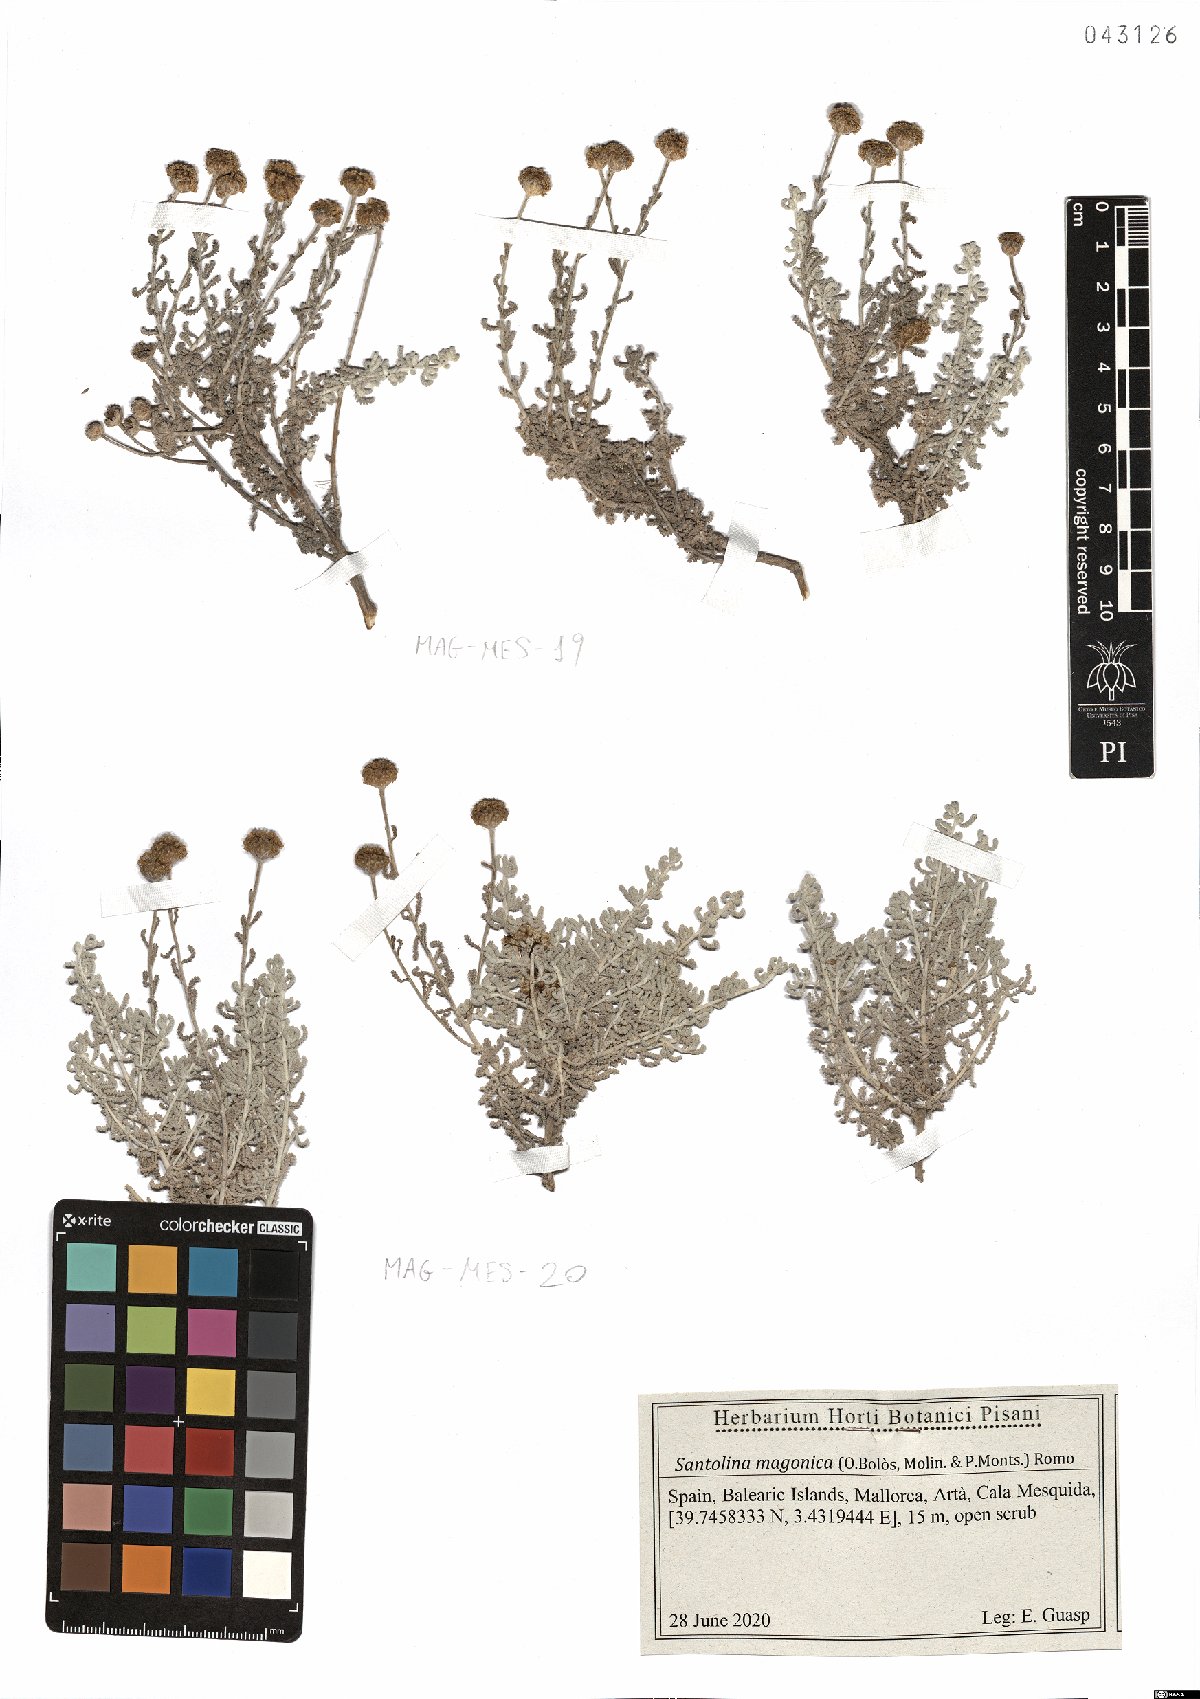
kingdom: Plantae
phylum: Tracheophyta
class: Magnoliopsida
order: Asterales
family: Asteraceae
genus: Santolina
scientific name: Santolina magonica
